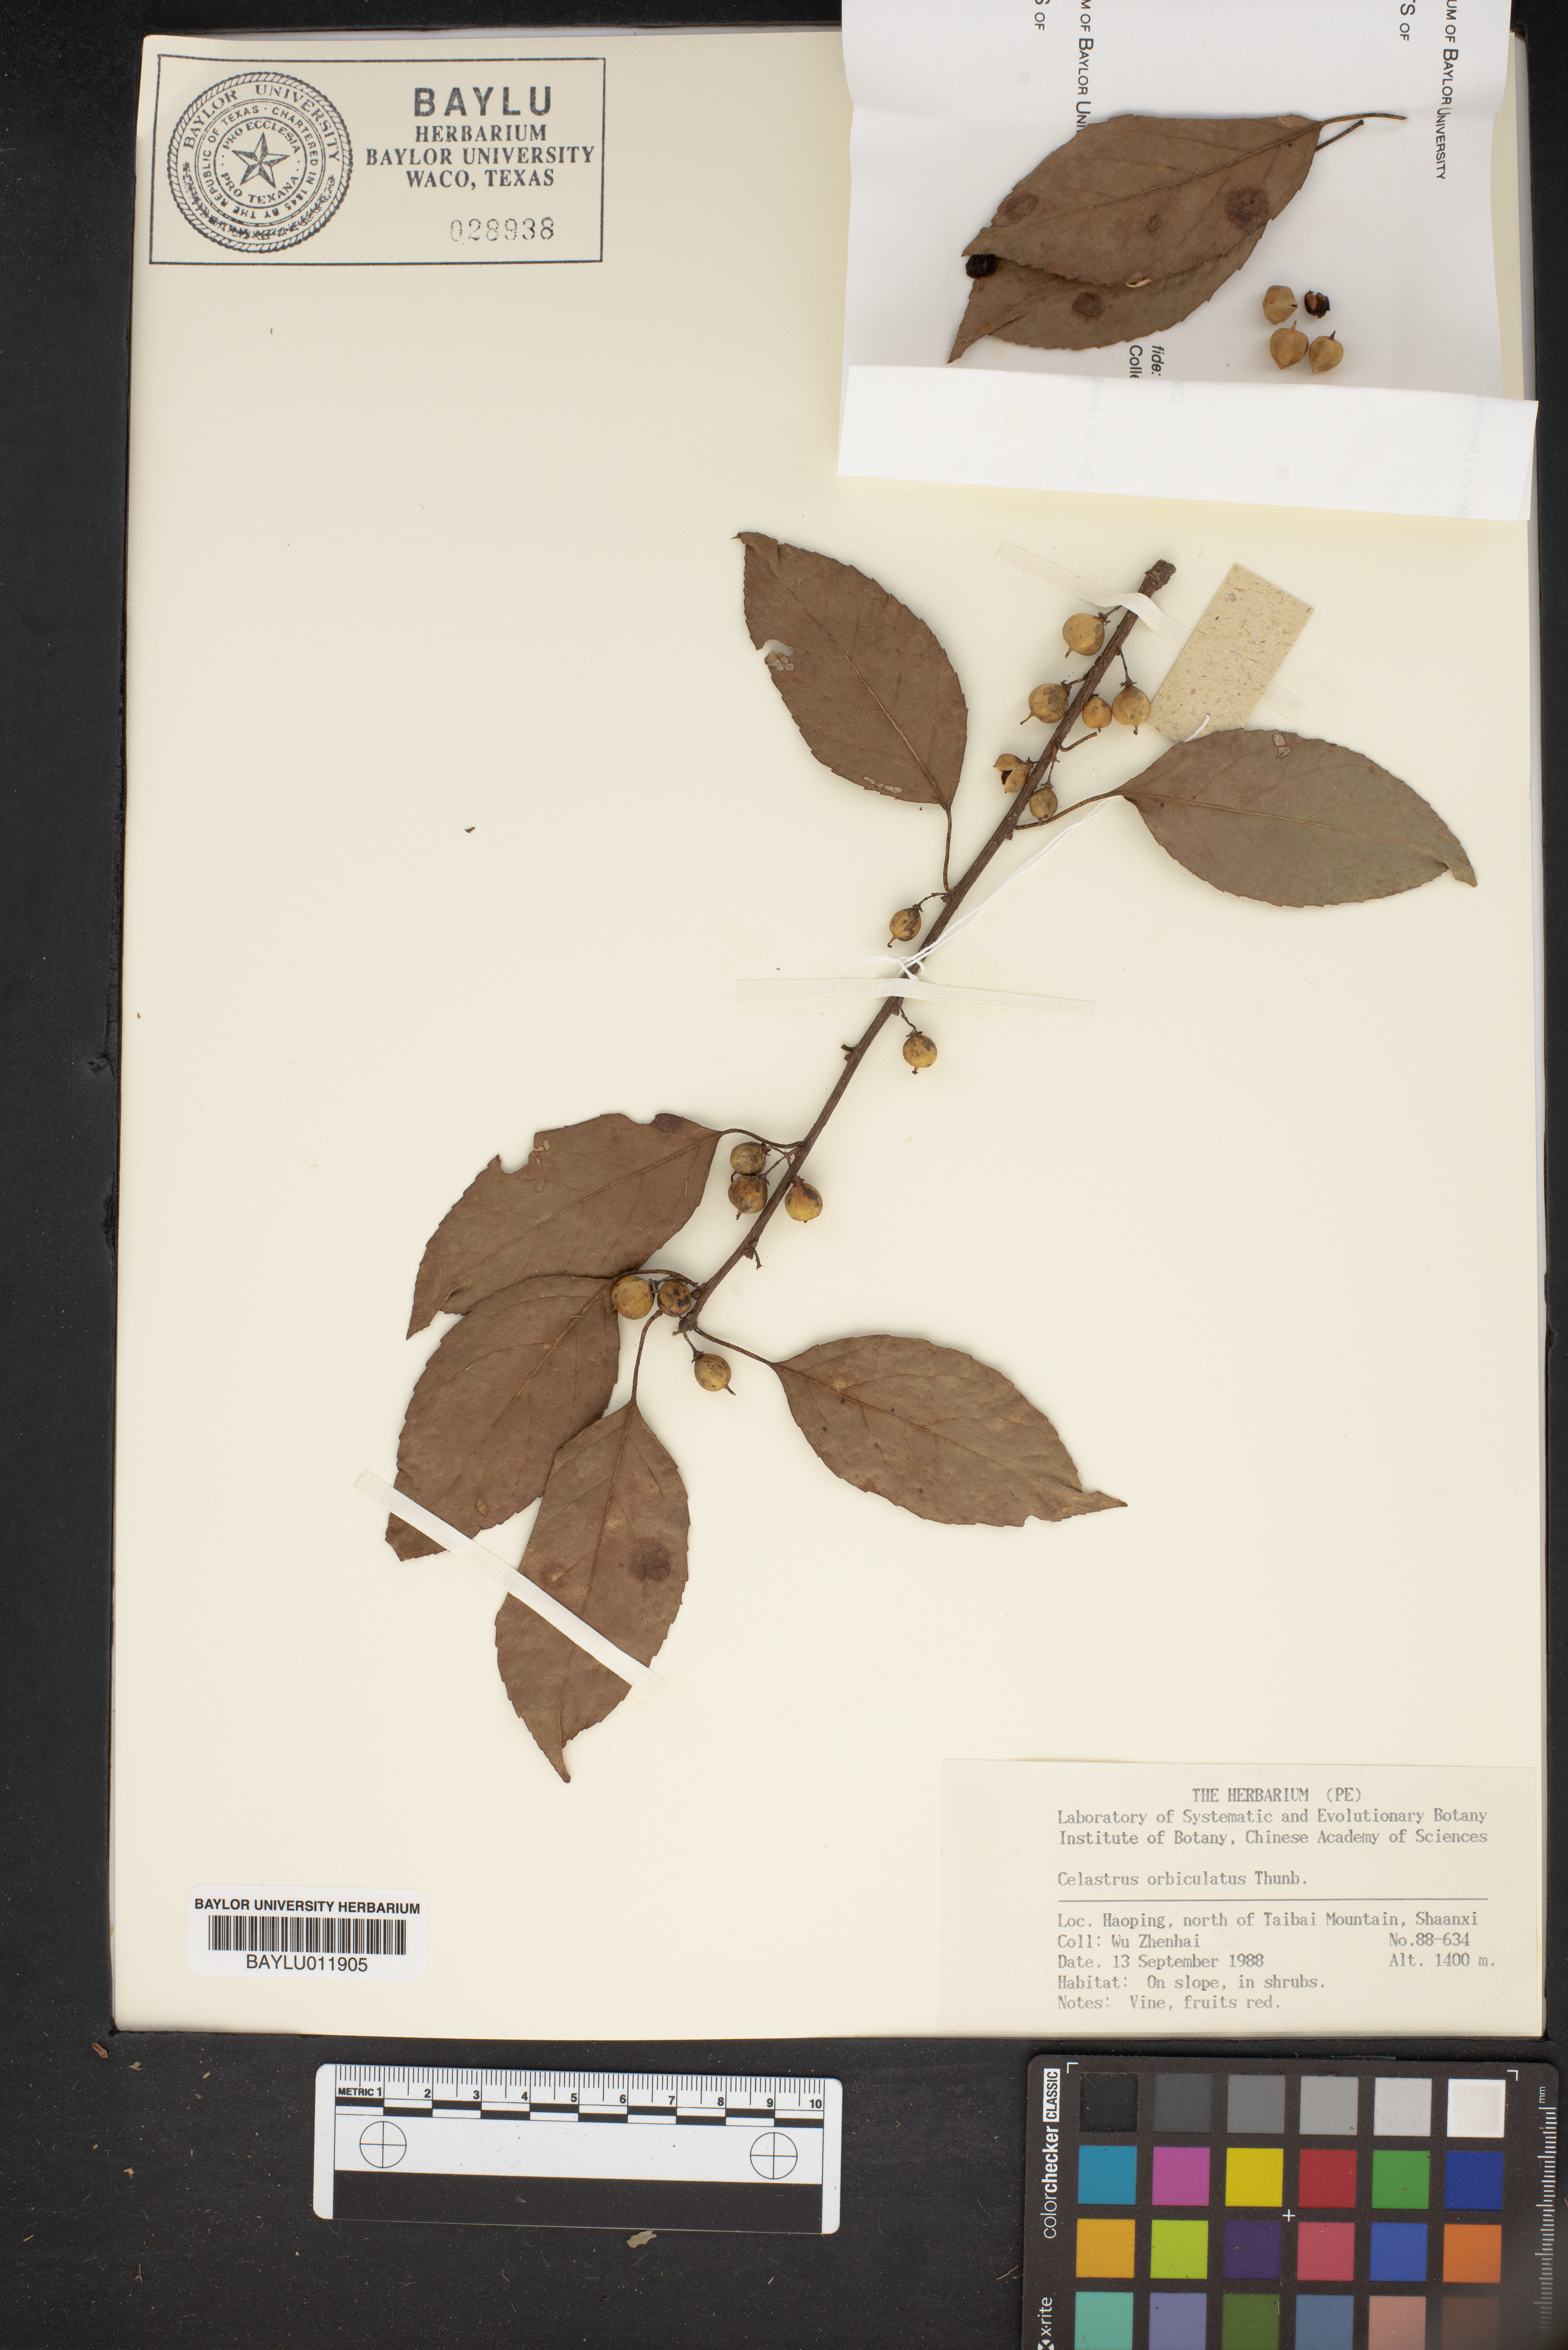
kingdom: Plantae
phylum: Tracheophyta
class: Magnoliopsida
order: Celastrales
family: Celastraceae
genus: Celastrus
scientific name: Celastrus orbiculatus
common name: Oriental bittersweet
